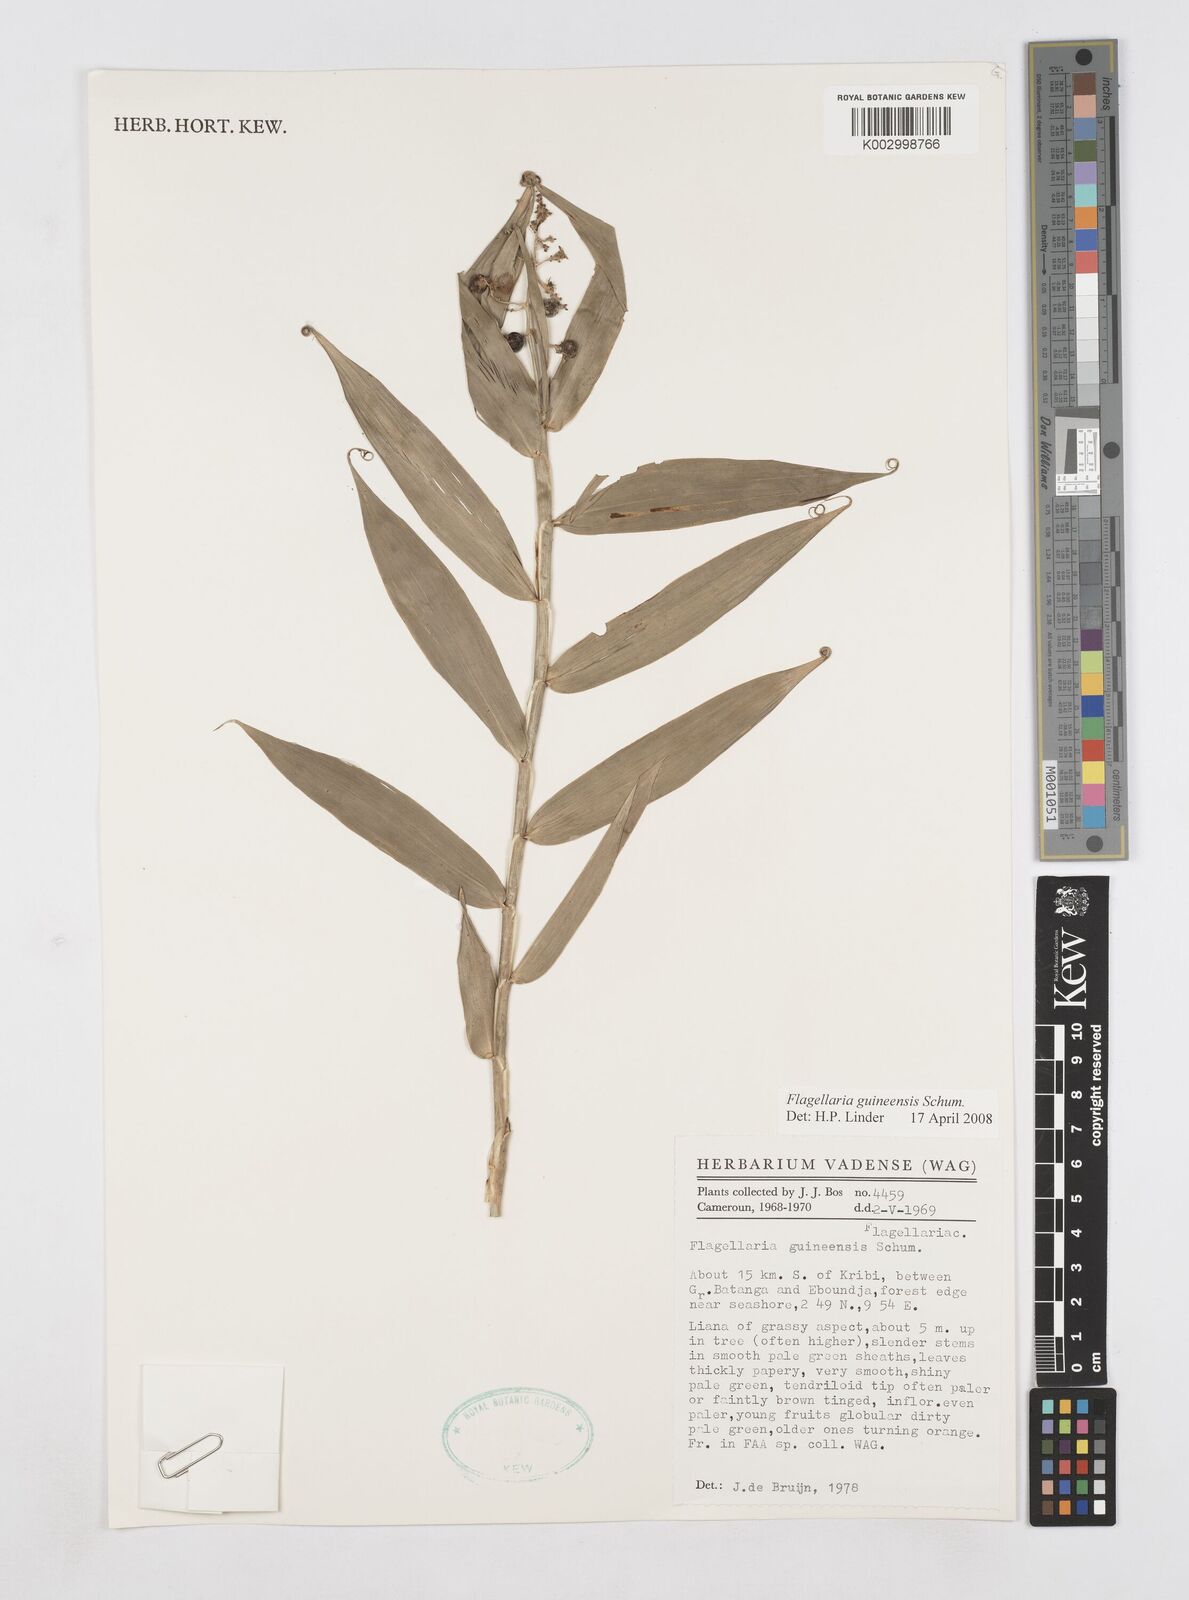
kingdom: Plantae
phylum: Tracheophyta
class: Liliopsida
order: Poales
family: Flagellariaceae
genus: Flagellaria
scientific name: Flagellaria guineensis
